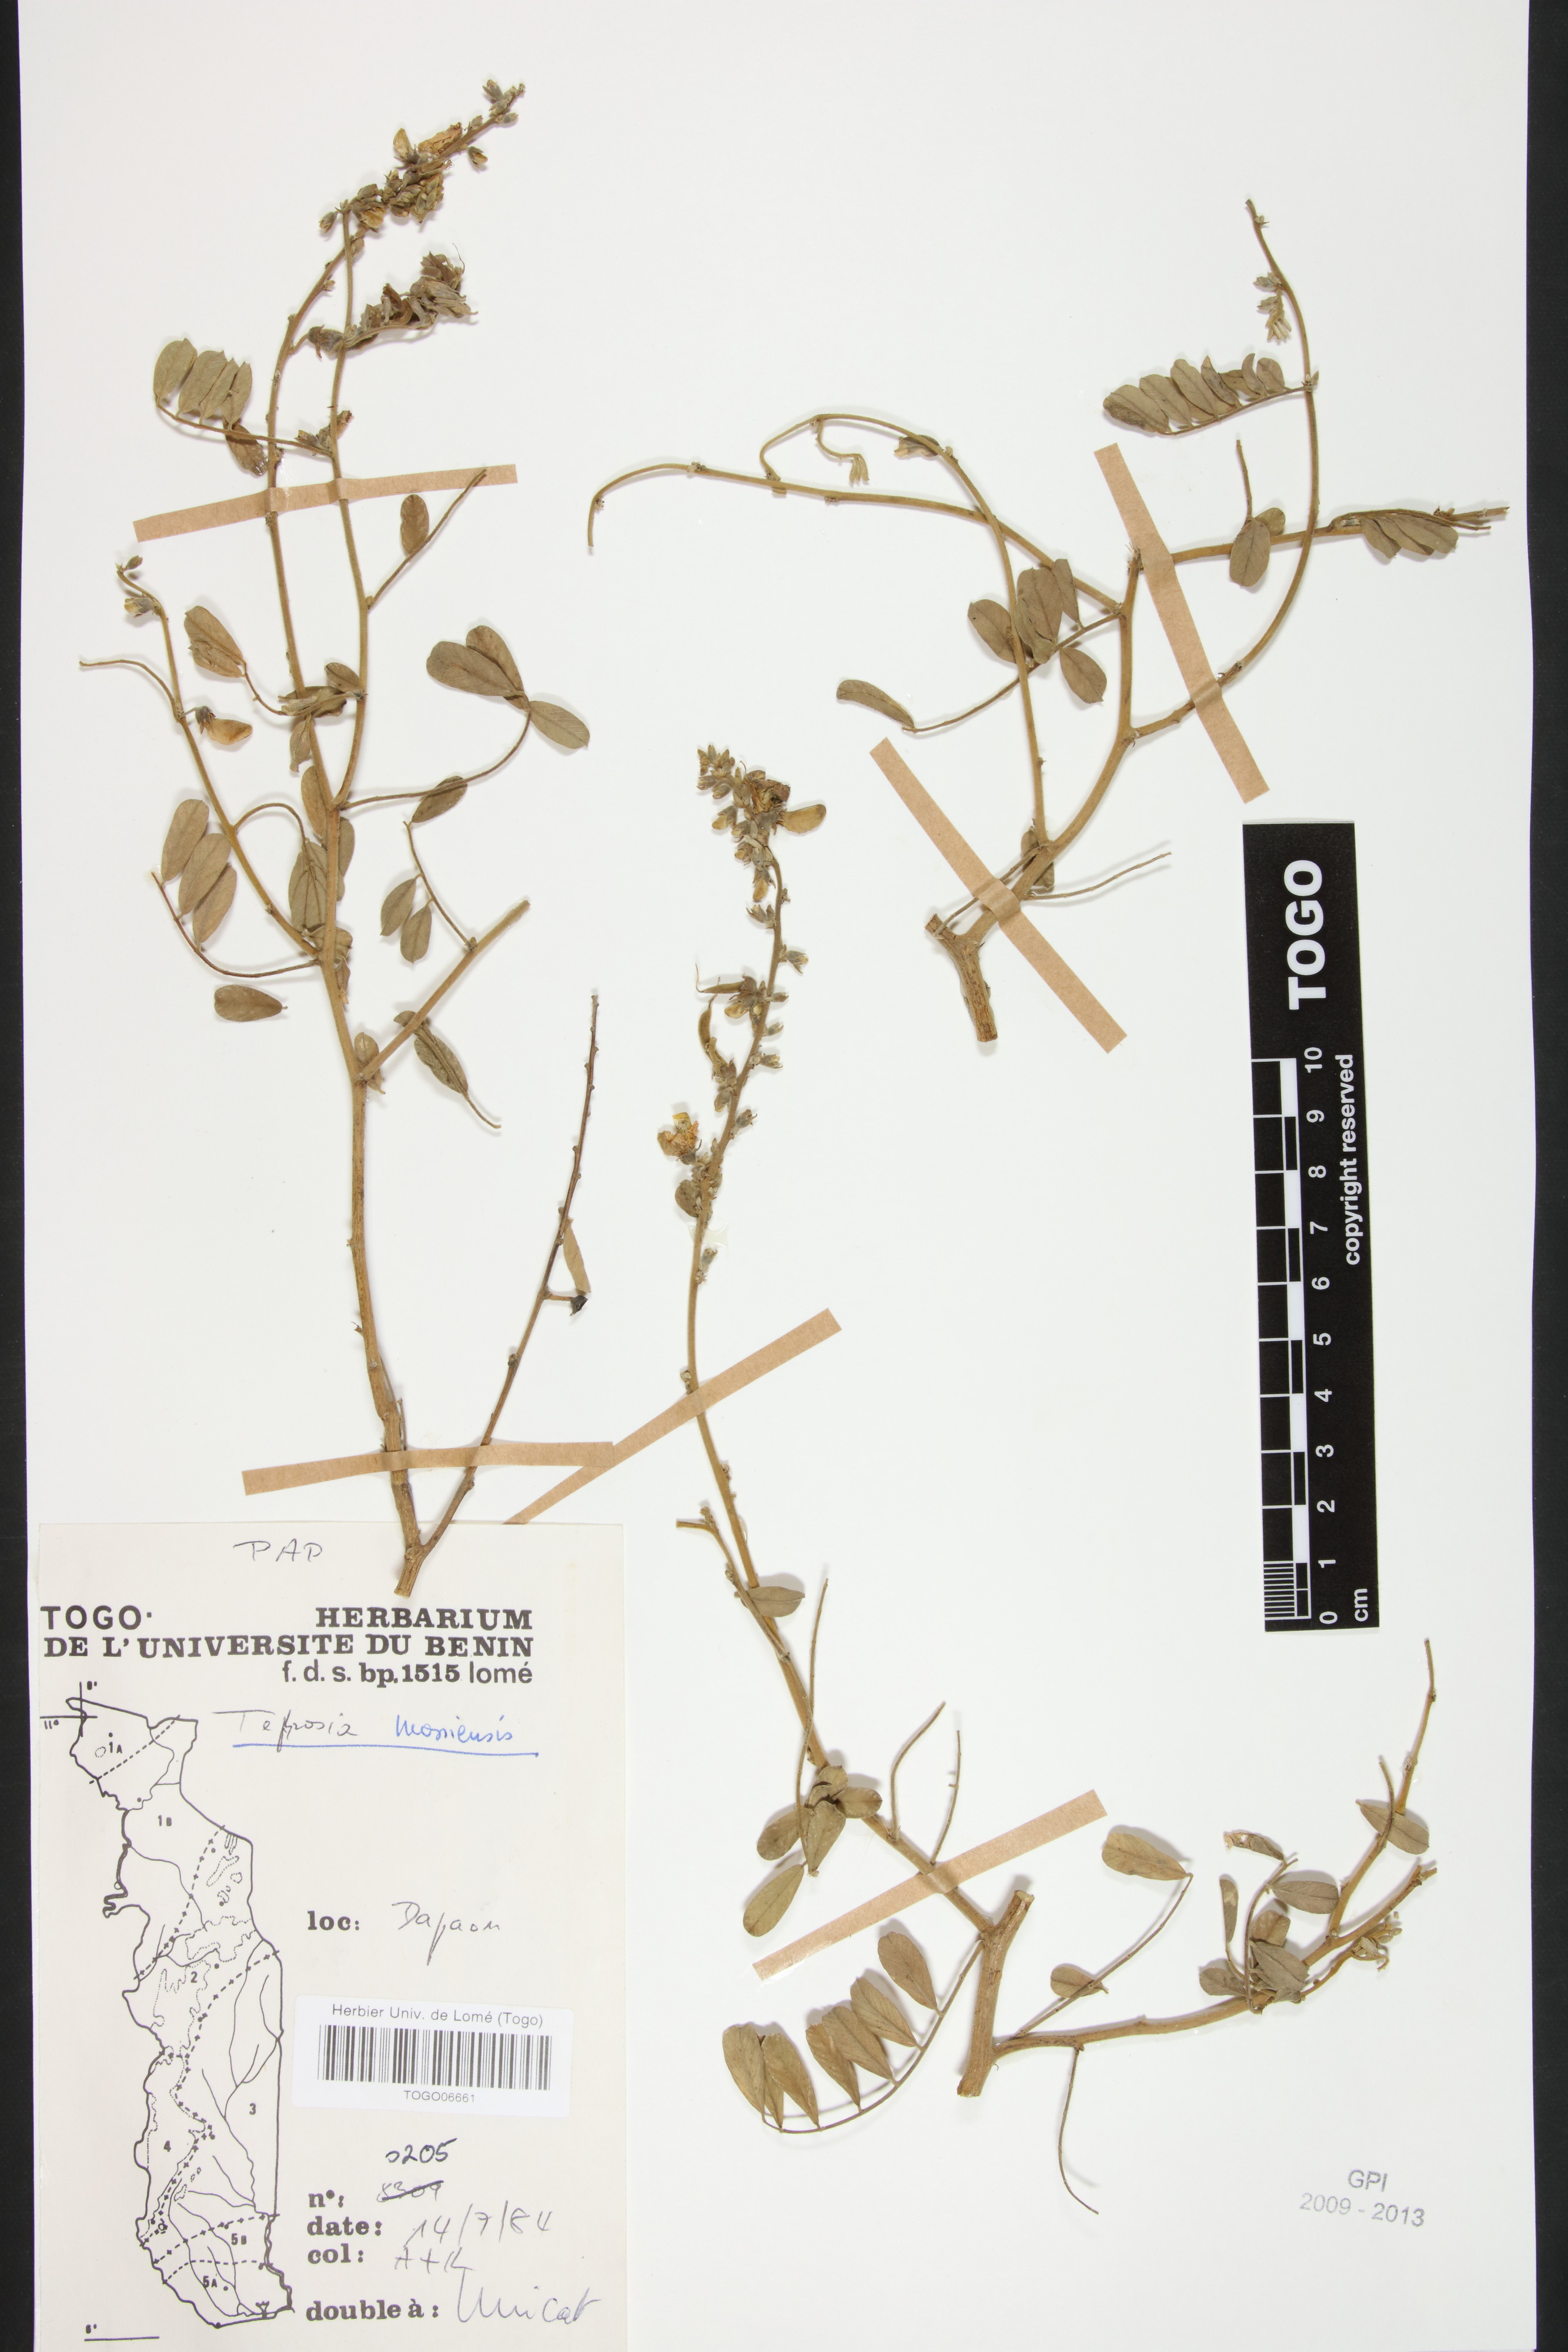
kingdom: Plantae
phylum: Tracheophyta
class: Magnoliopsida
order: Fabales
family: Fabaceae
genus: Tephrosia
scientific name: Tephrosia mossiensis
